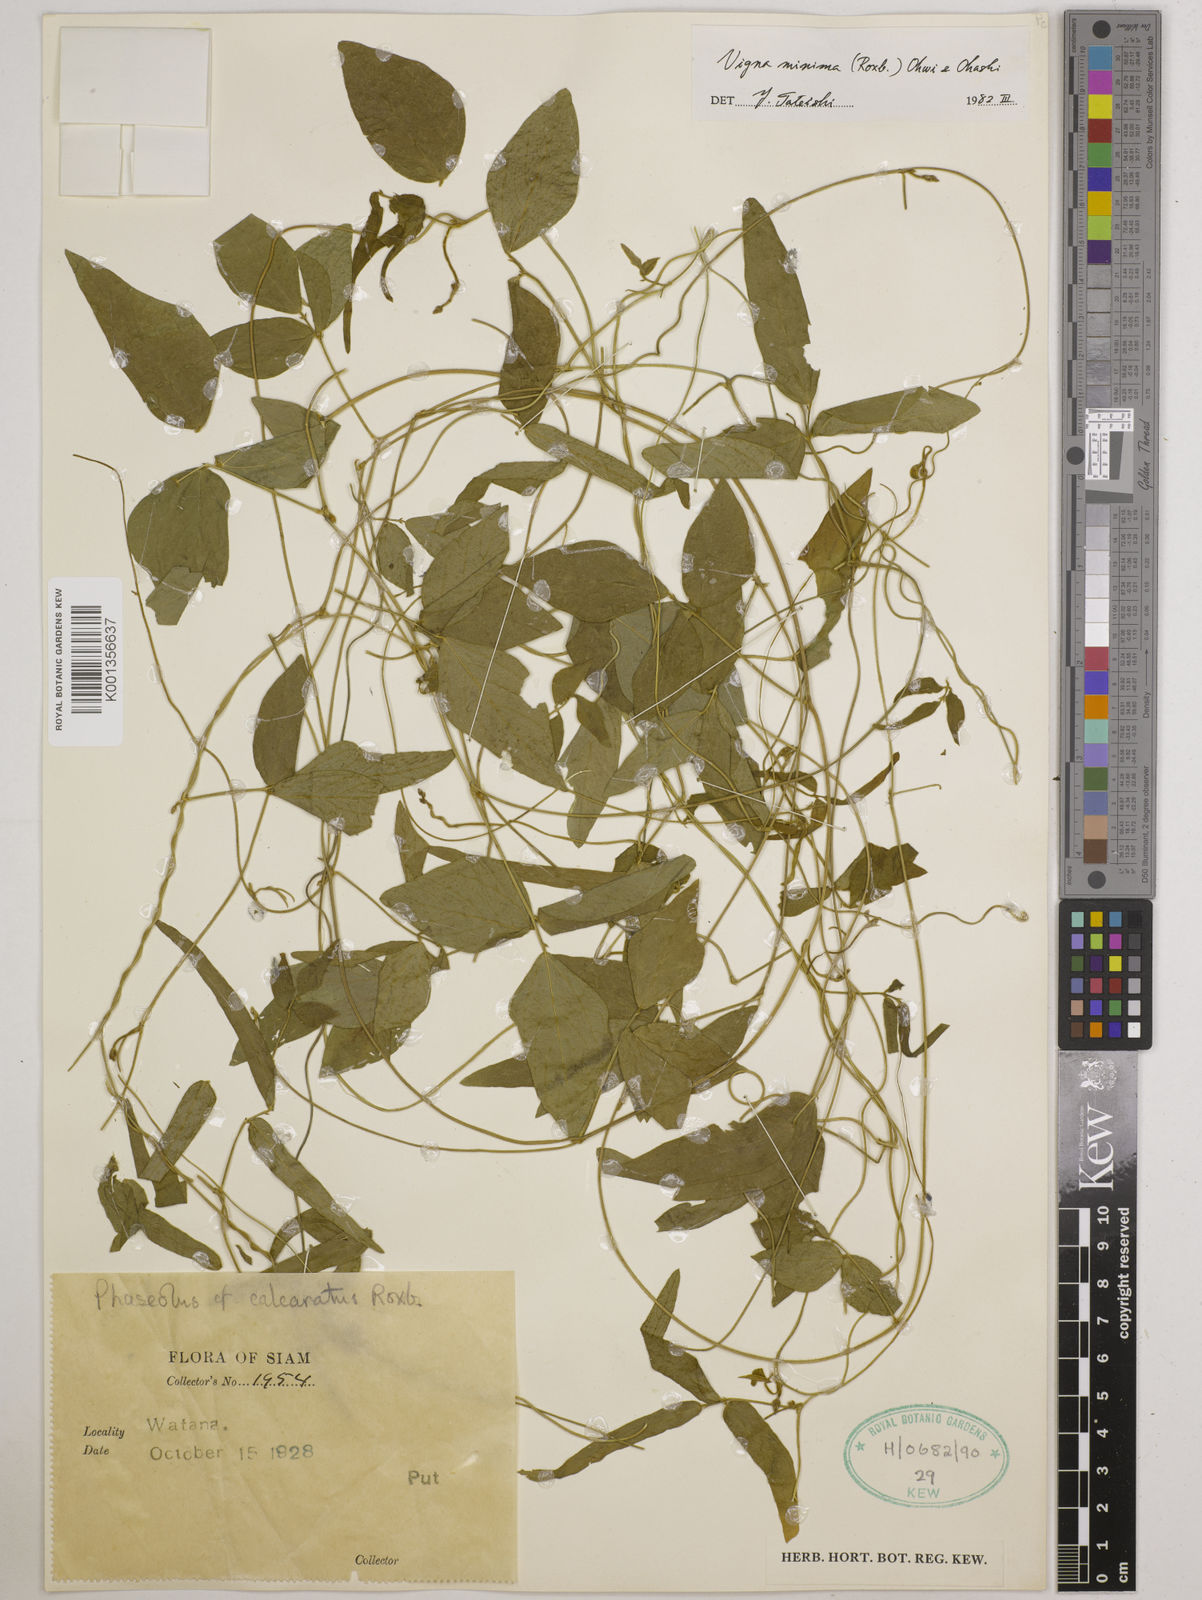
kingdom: Plantae
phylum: Tracheophyta
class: Magnoliopsida
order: Fabales
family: Fabaceae
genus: Vigna
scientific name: Vigna minima
